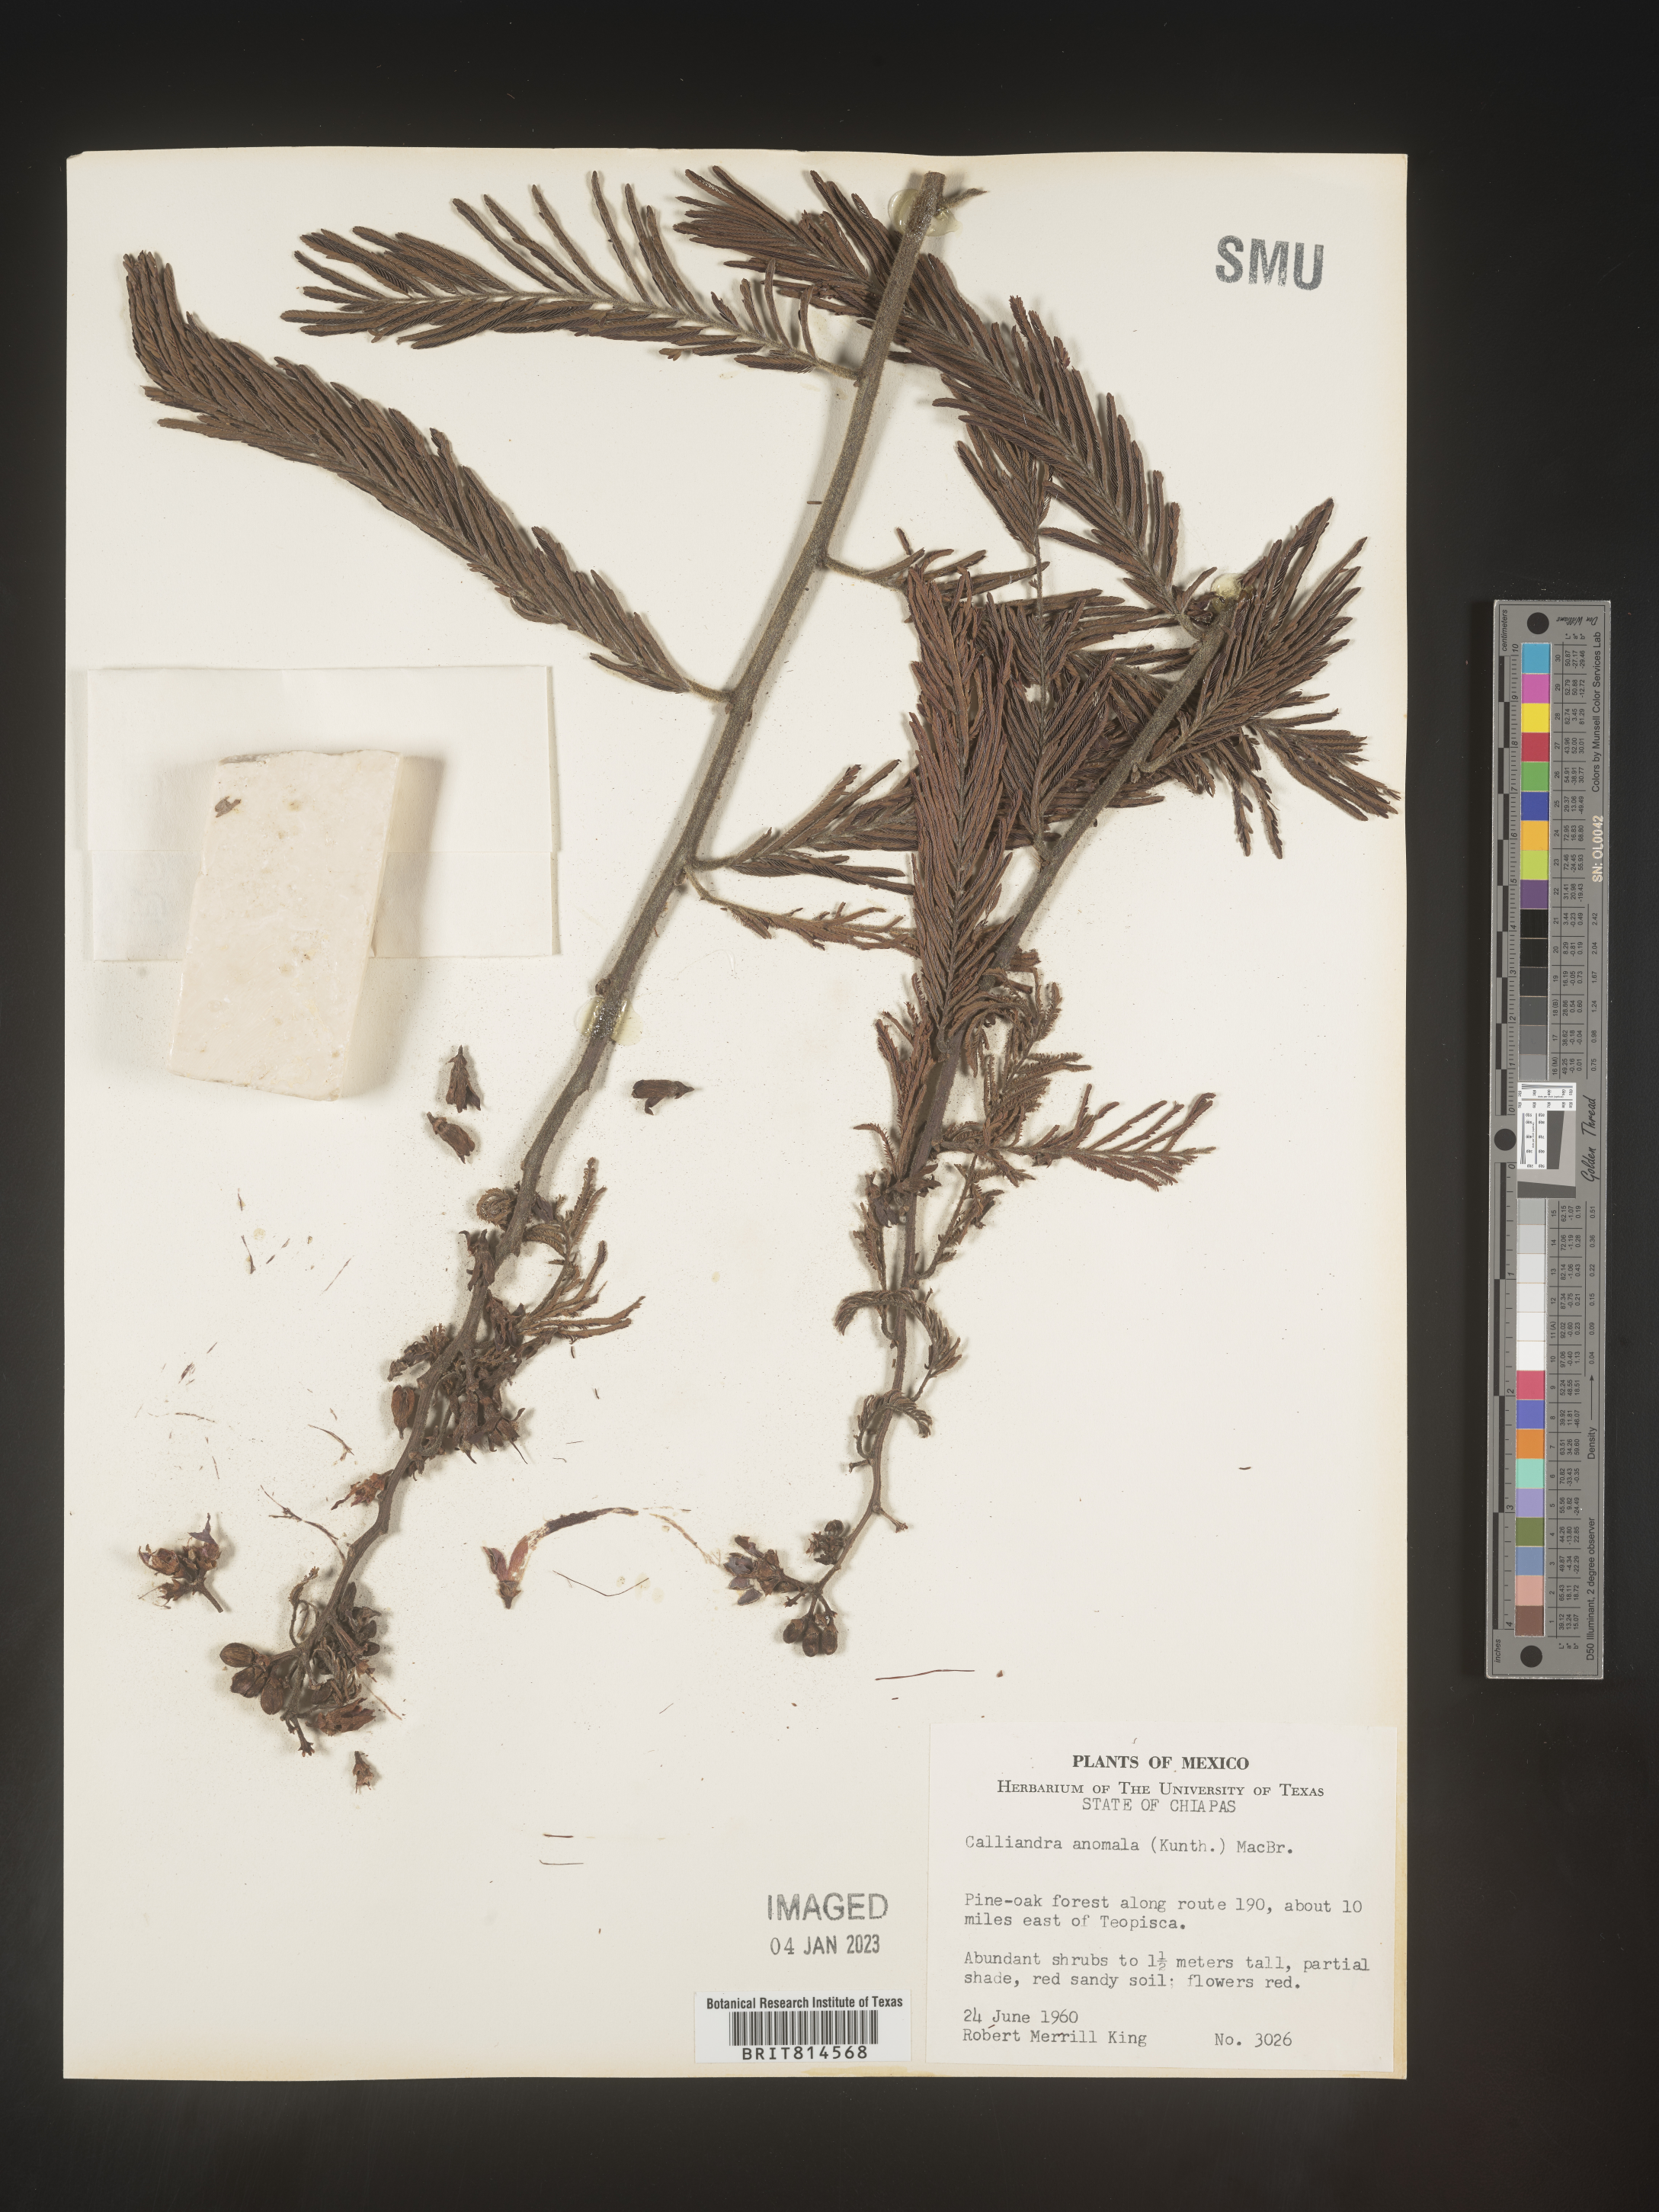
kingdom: Plantae
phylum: Tracheophyta
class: Magnoliopsida
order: Fabales
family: Fabaceae
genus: Calliandra
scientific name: Calliandra
